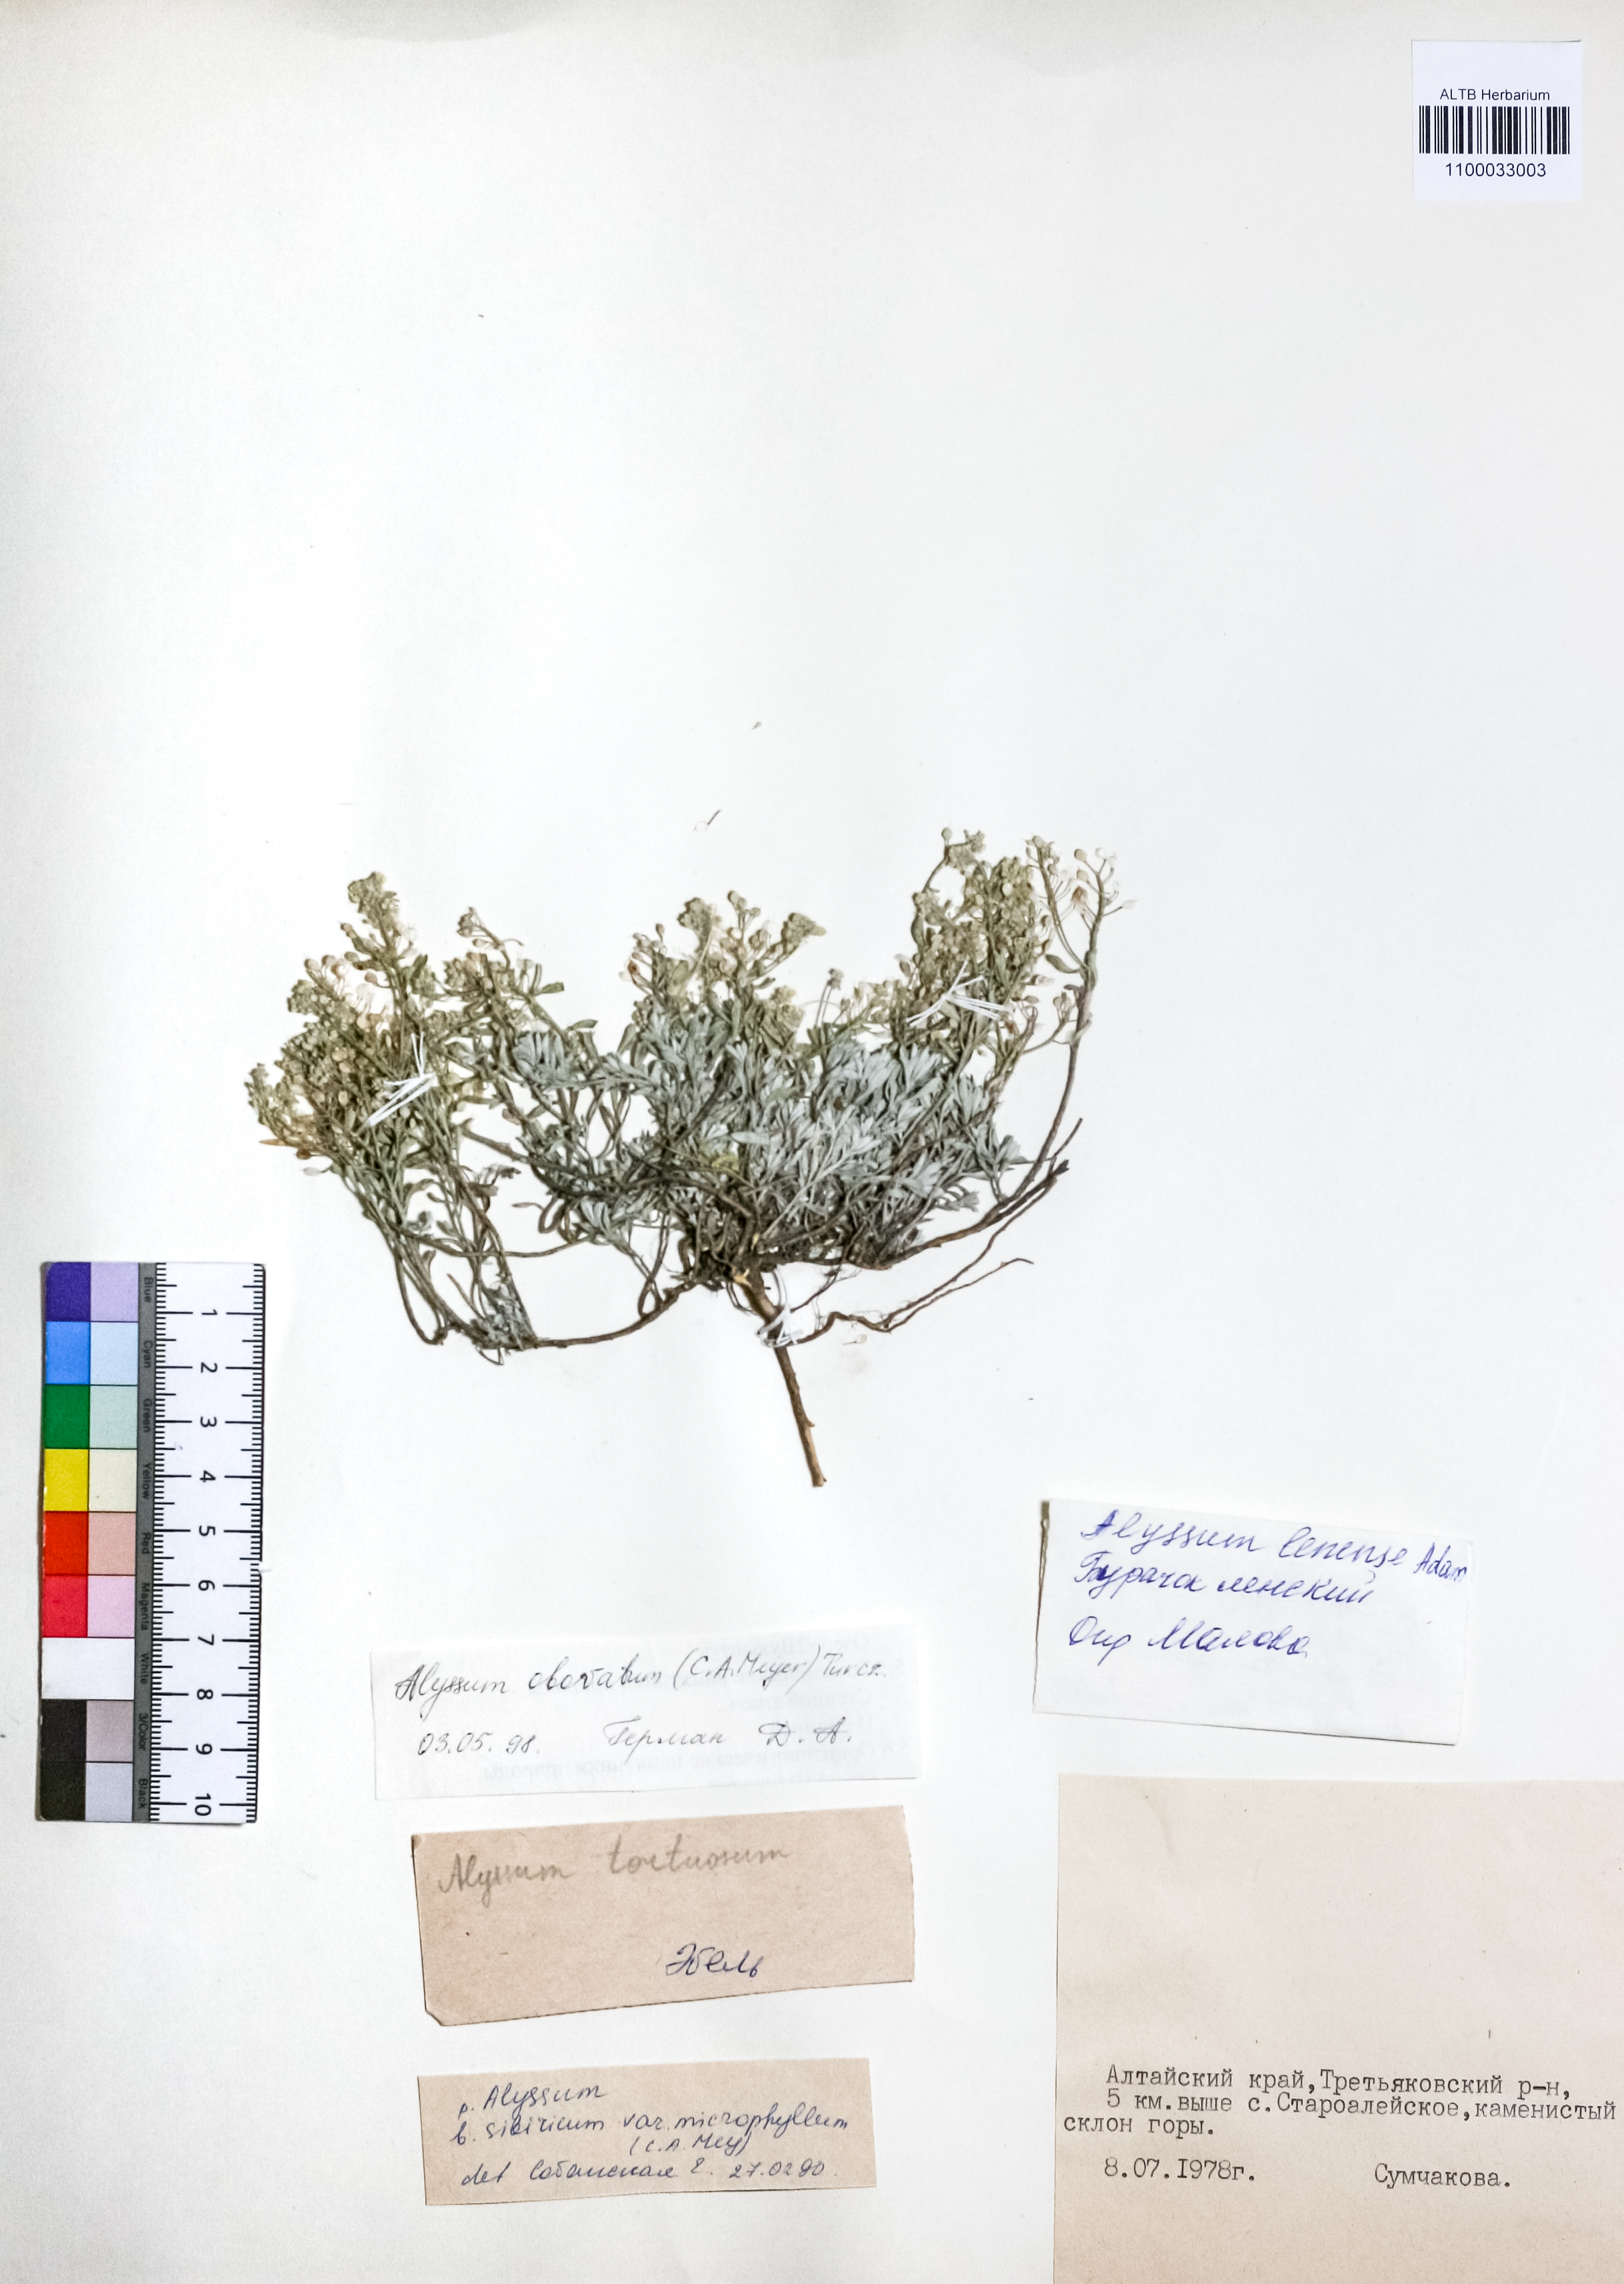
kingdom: Plantae
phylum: Tracheophyta
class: Magnoliopsida
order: Brassicales
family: Brassicaceae
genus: Odontarrhena
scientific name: Odontarrhena obovata
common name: American alyssum
